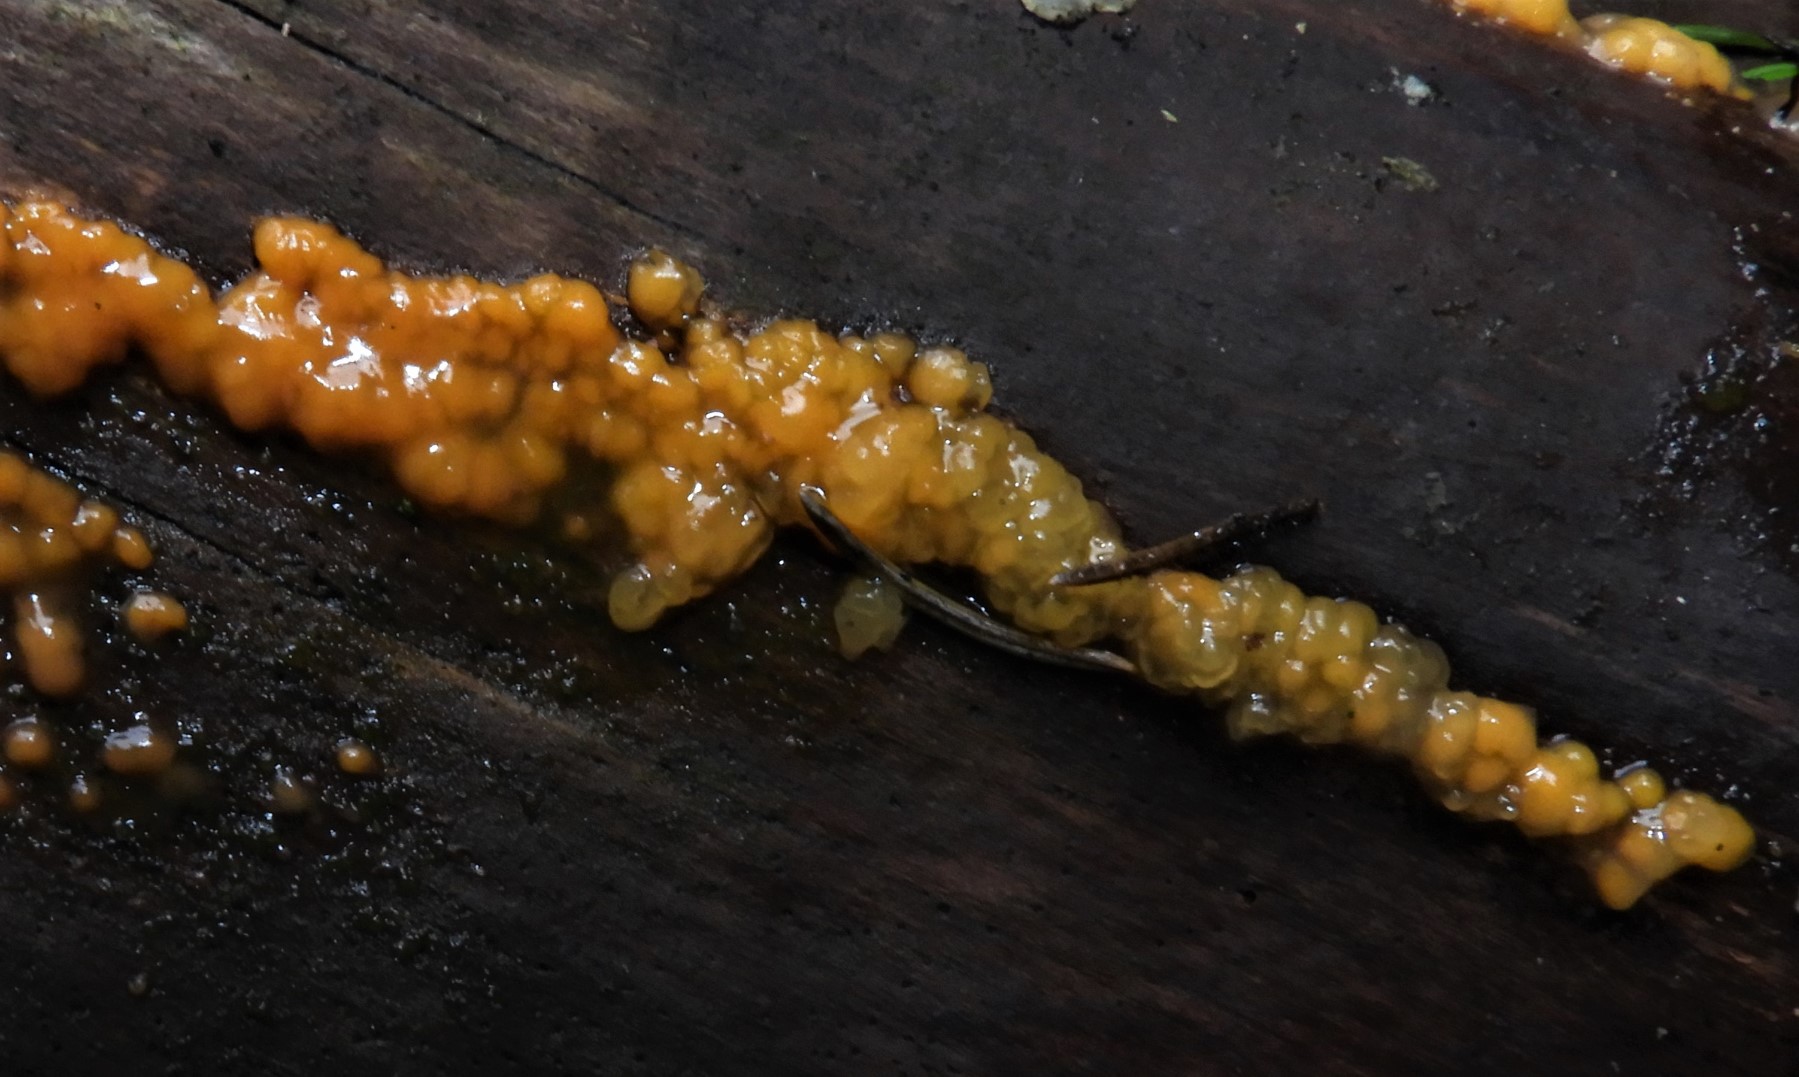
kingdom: Fungi
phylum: Basidiomycota
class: Dacrymycetes
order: Dacrymycetales
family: Dacrymycetaceae
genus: Dacrymyces
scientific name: Dacrymyces stillatus
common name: almindelig tåresvamp
